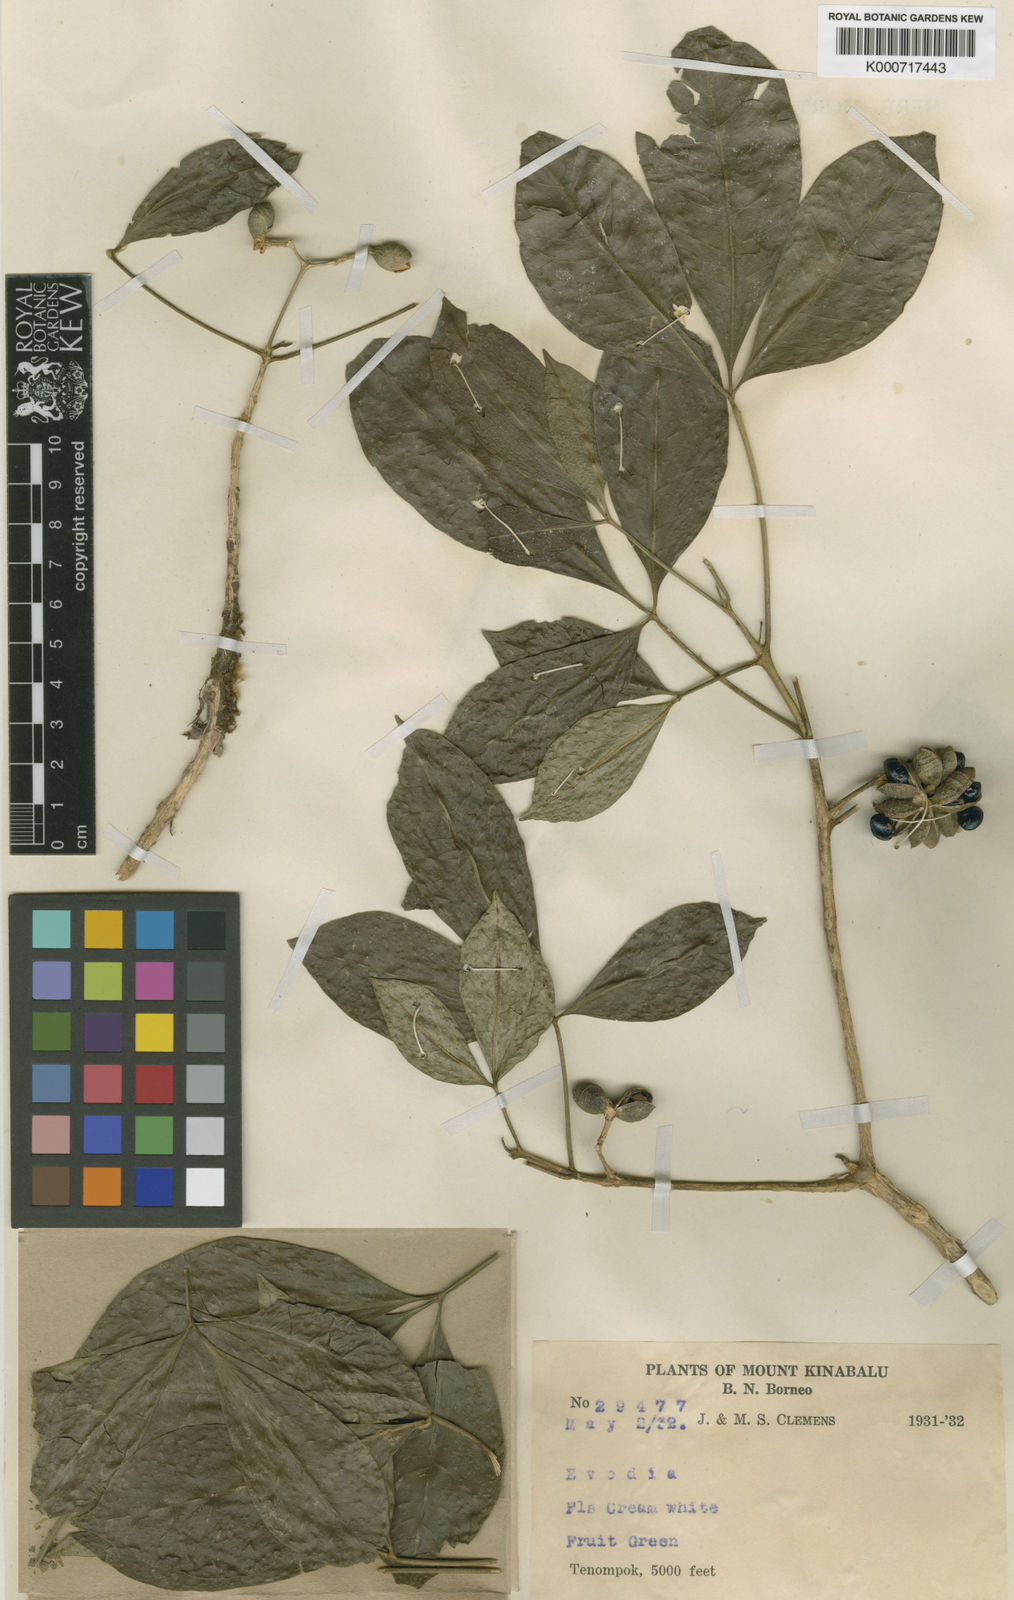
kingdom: Plantae
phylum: Tracheophyta
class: Magnoliopsida
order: Sapindales
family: Rutaceae
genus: Melicope
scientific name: Melicope sororia
